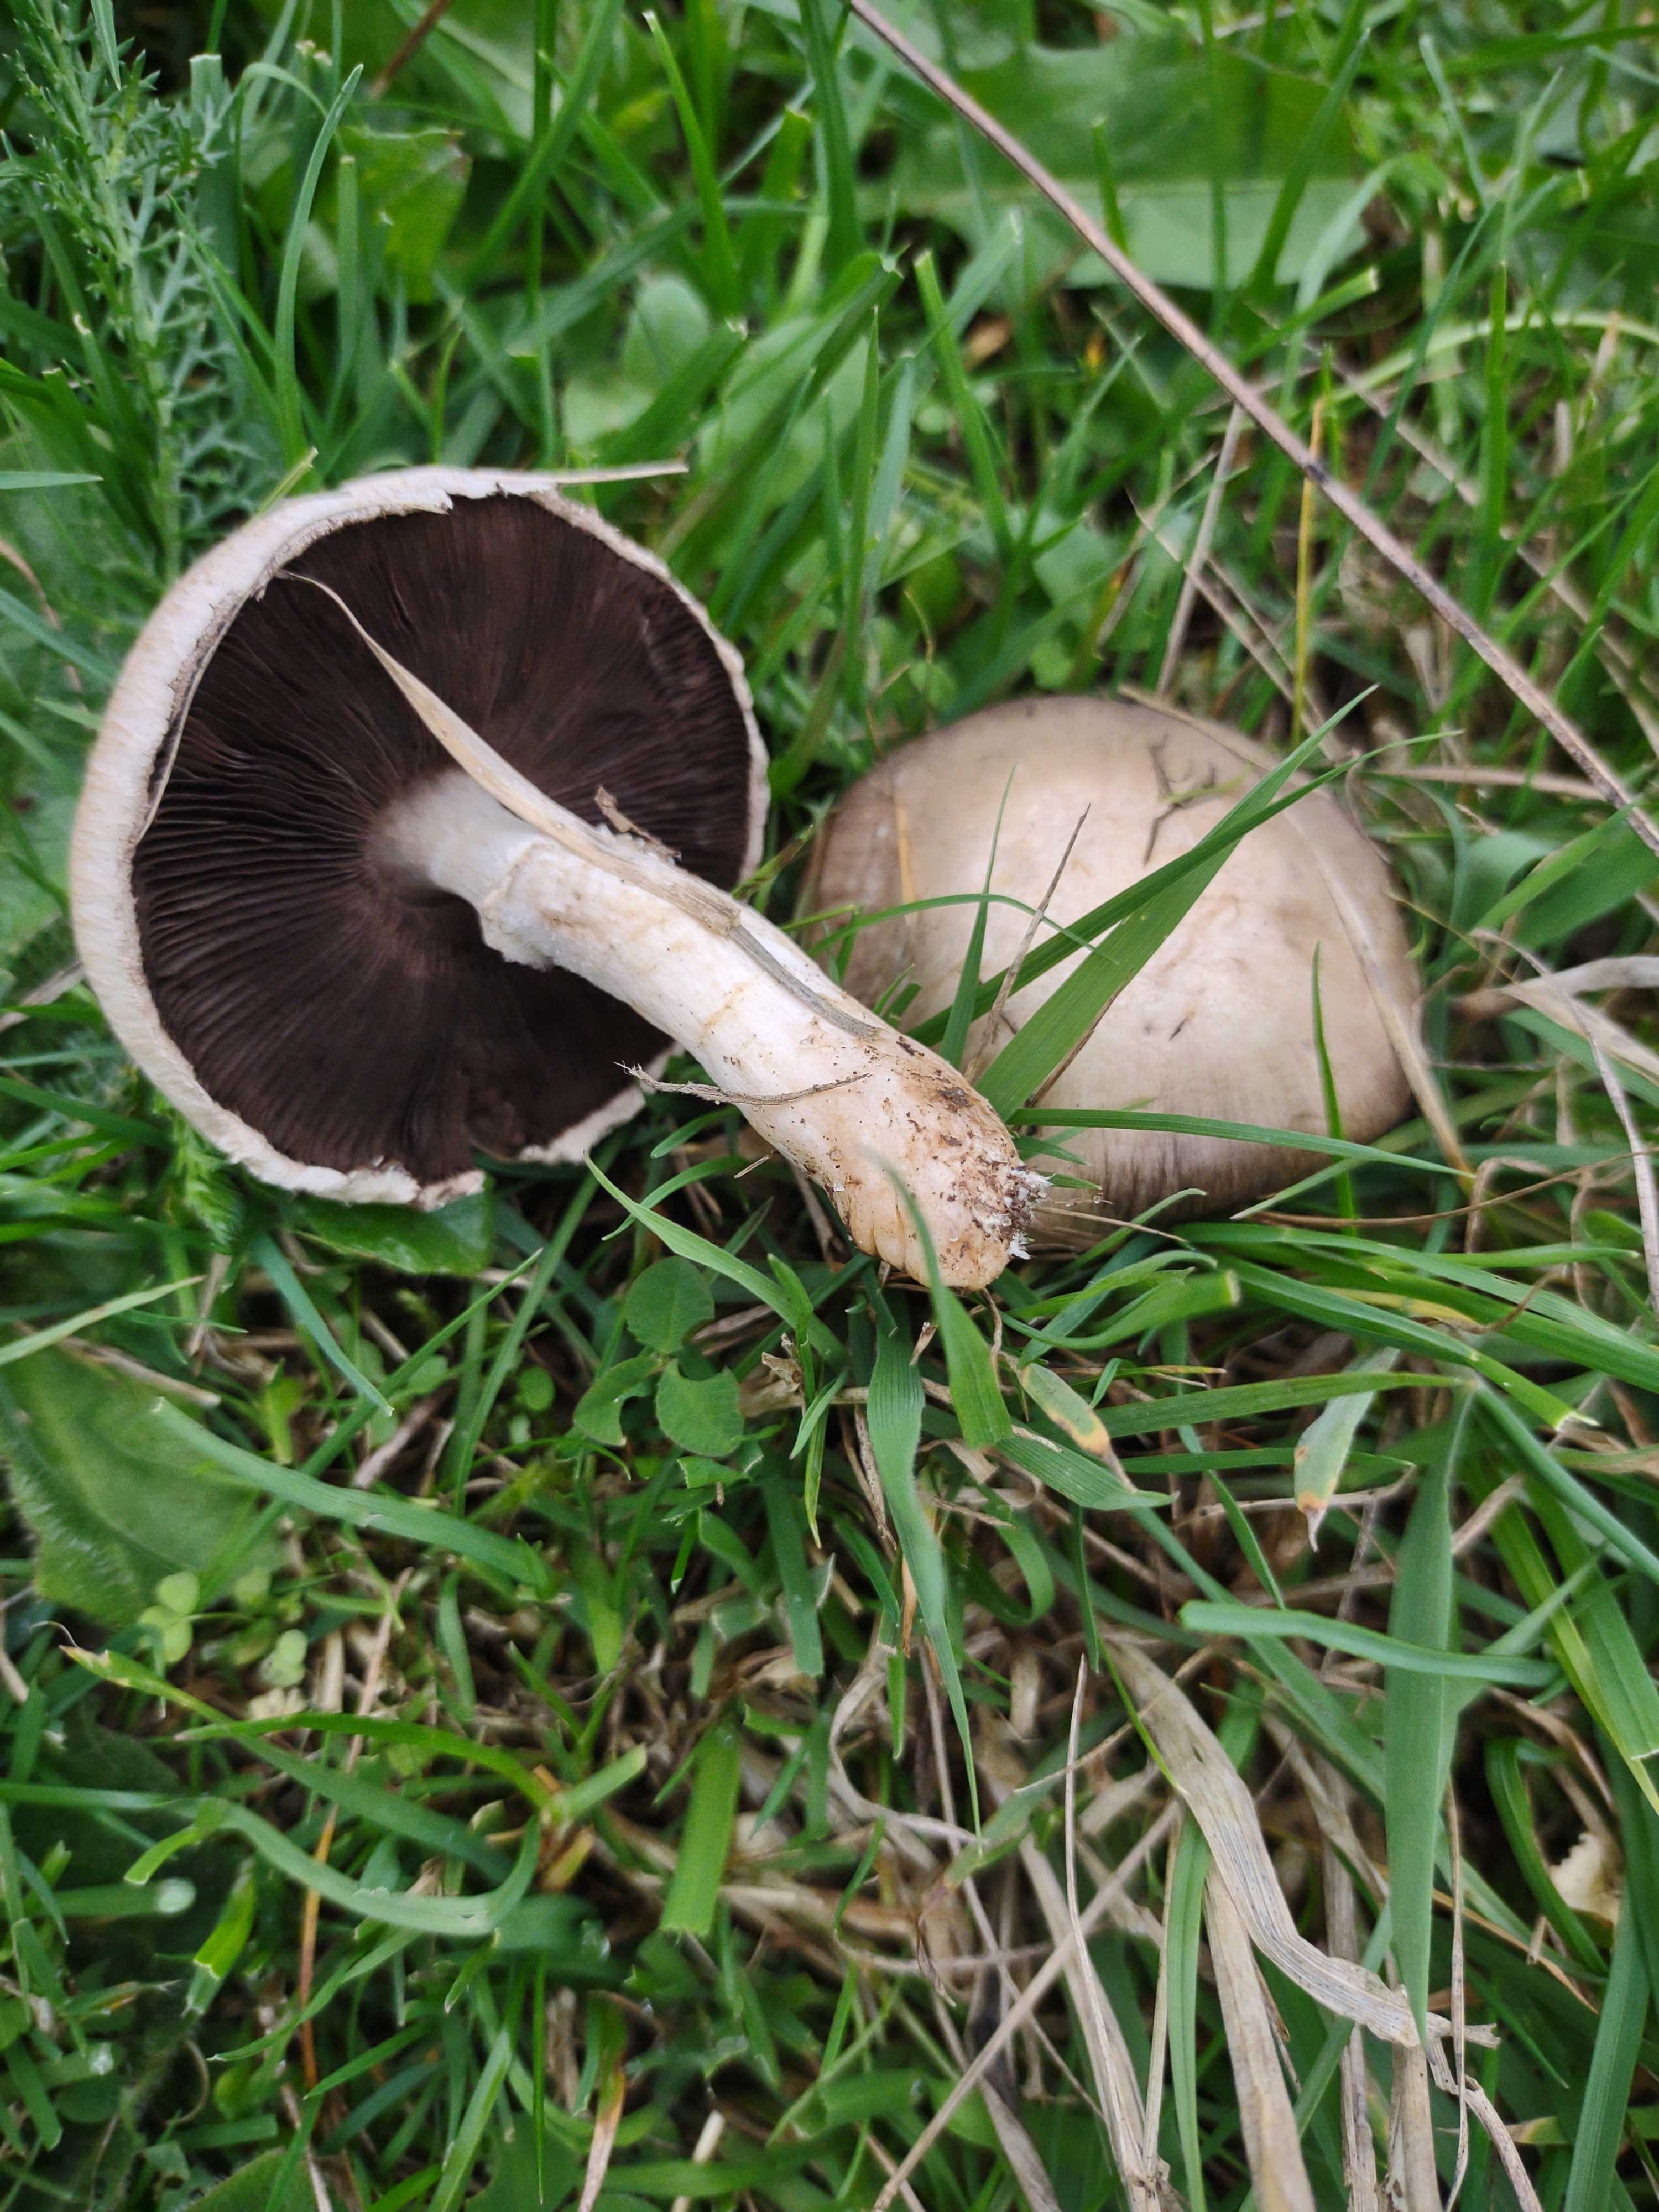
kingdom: Fungi
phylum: Basidiomycota
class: Agaricomycetes
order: Agaricales
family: Agaricaceae
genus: Agaricus
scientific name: Agaricus campestris
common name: mark-champignon
